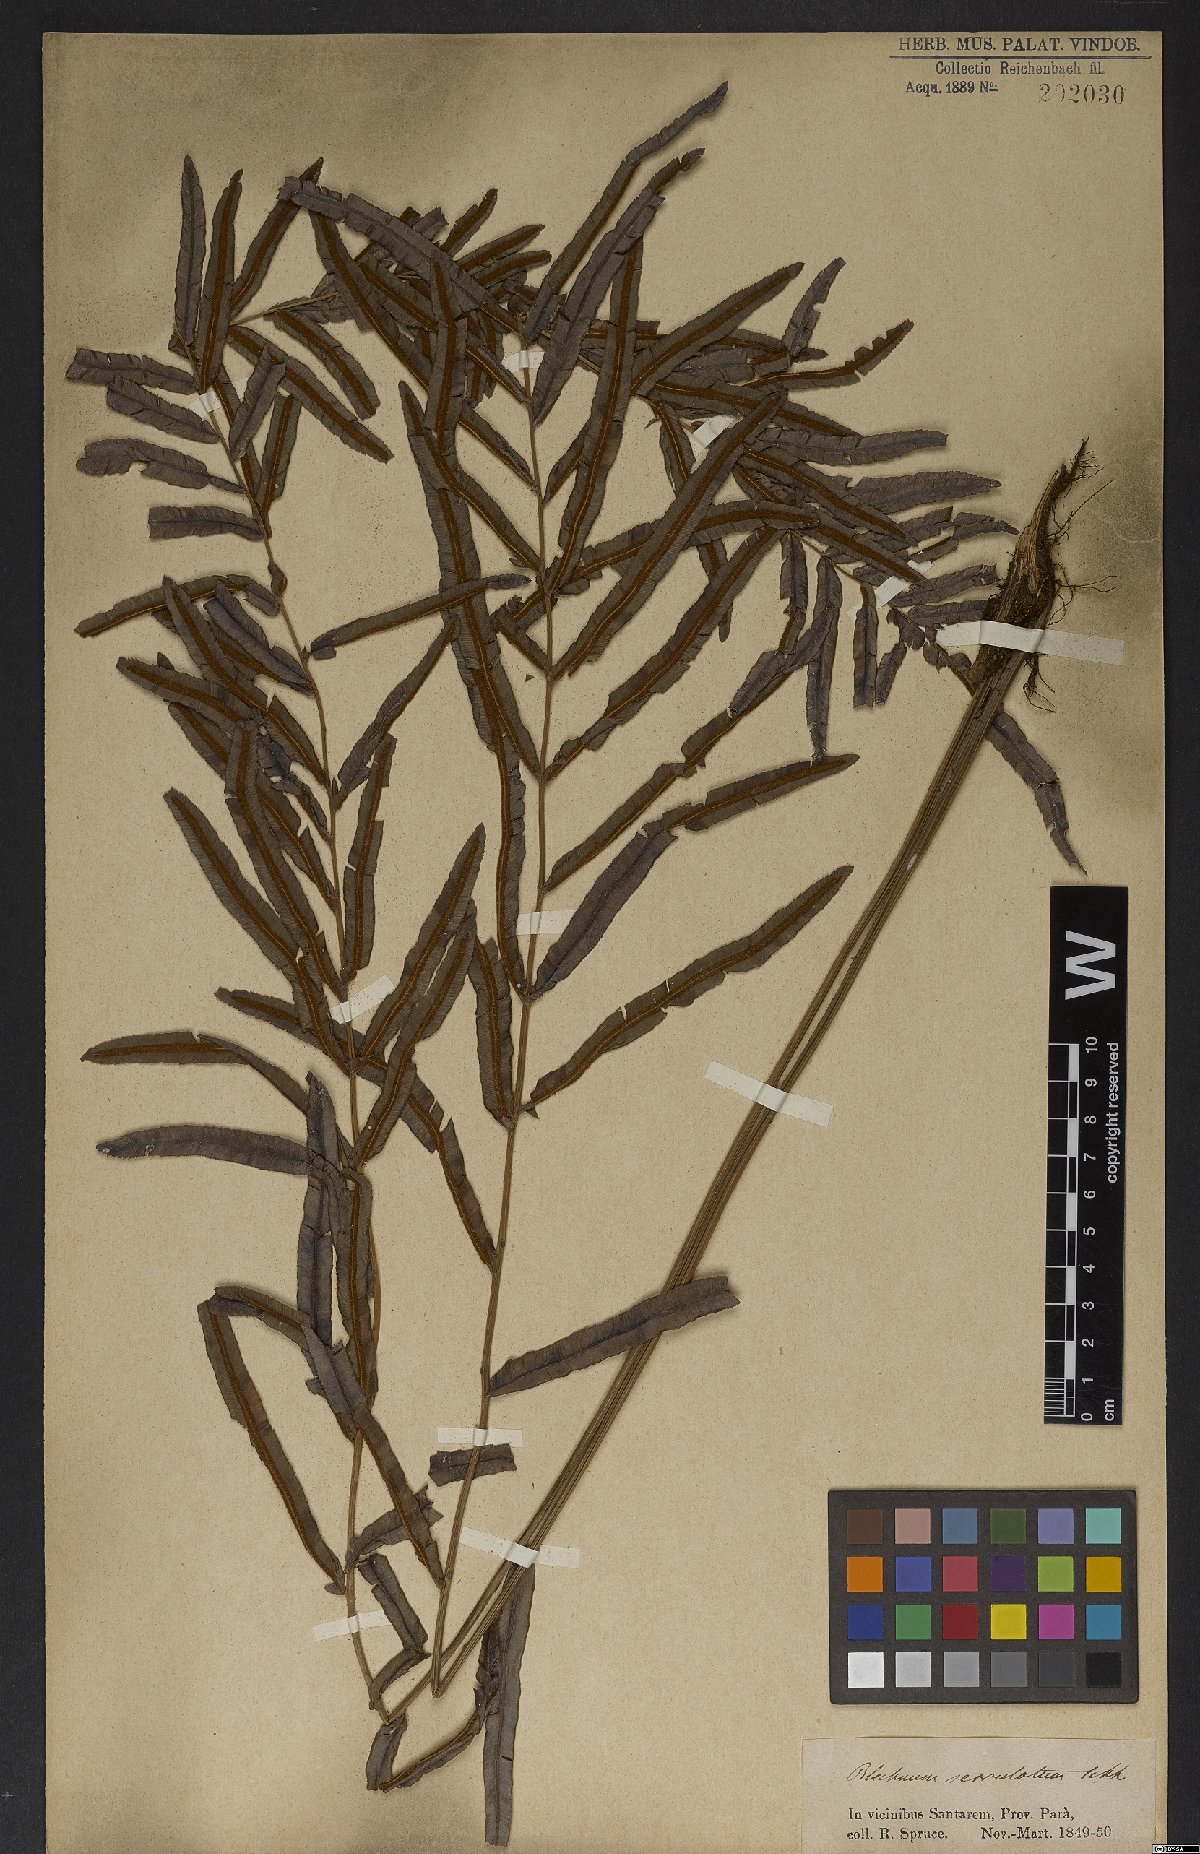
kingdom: Plantae
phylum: Tracheophyta
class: Polypodiopsida
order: Polypodiales
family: Blechnaceae
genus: Telmatoblechnum
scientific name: Telmatoblechnum serrulatum
